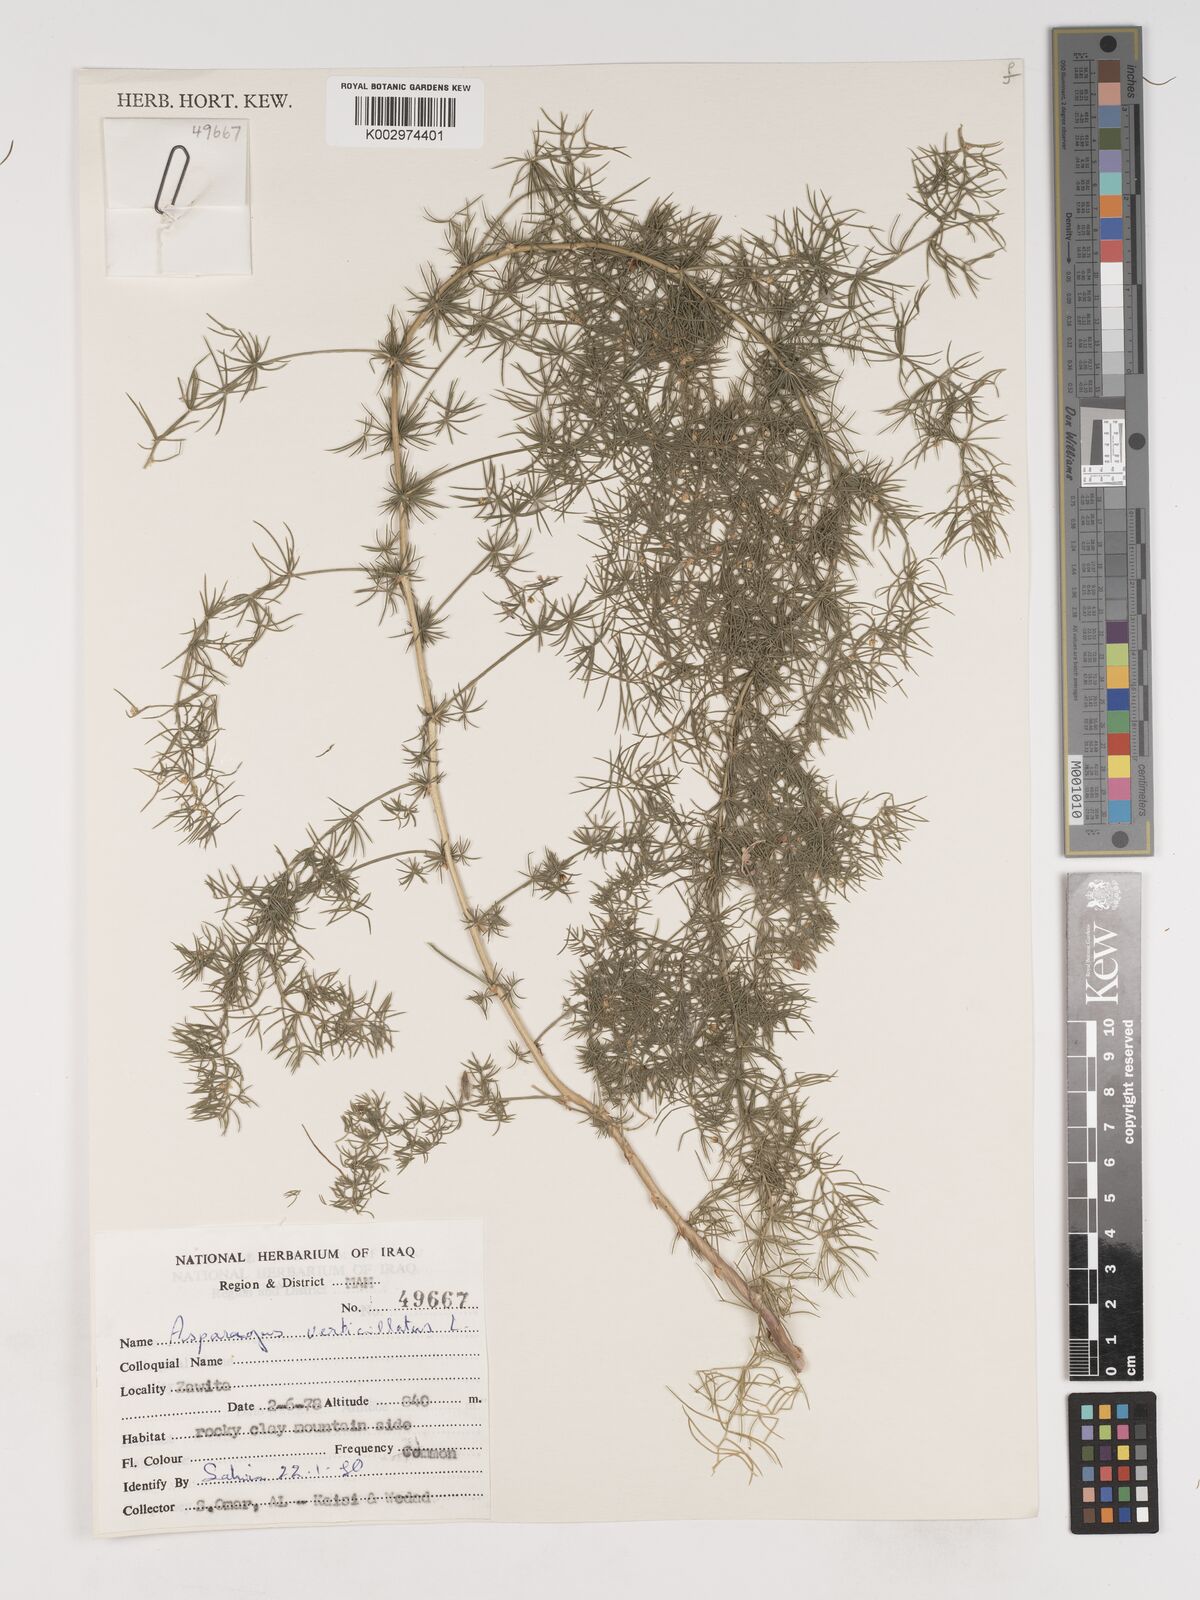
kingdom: Plantae
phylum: Tracheophyta
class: Liliopsida
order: Asparagales
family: Asparagaceae
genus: Asparagus
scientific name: Asparagus verticillatus
